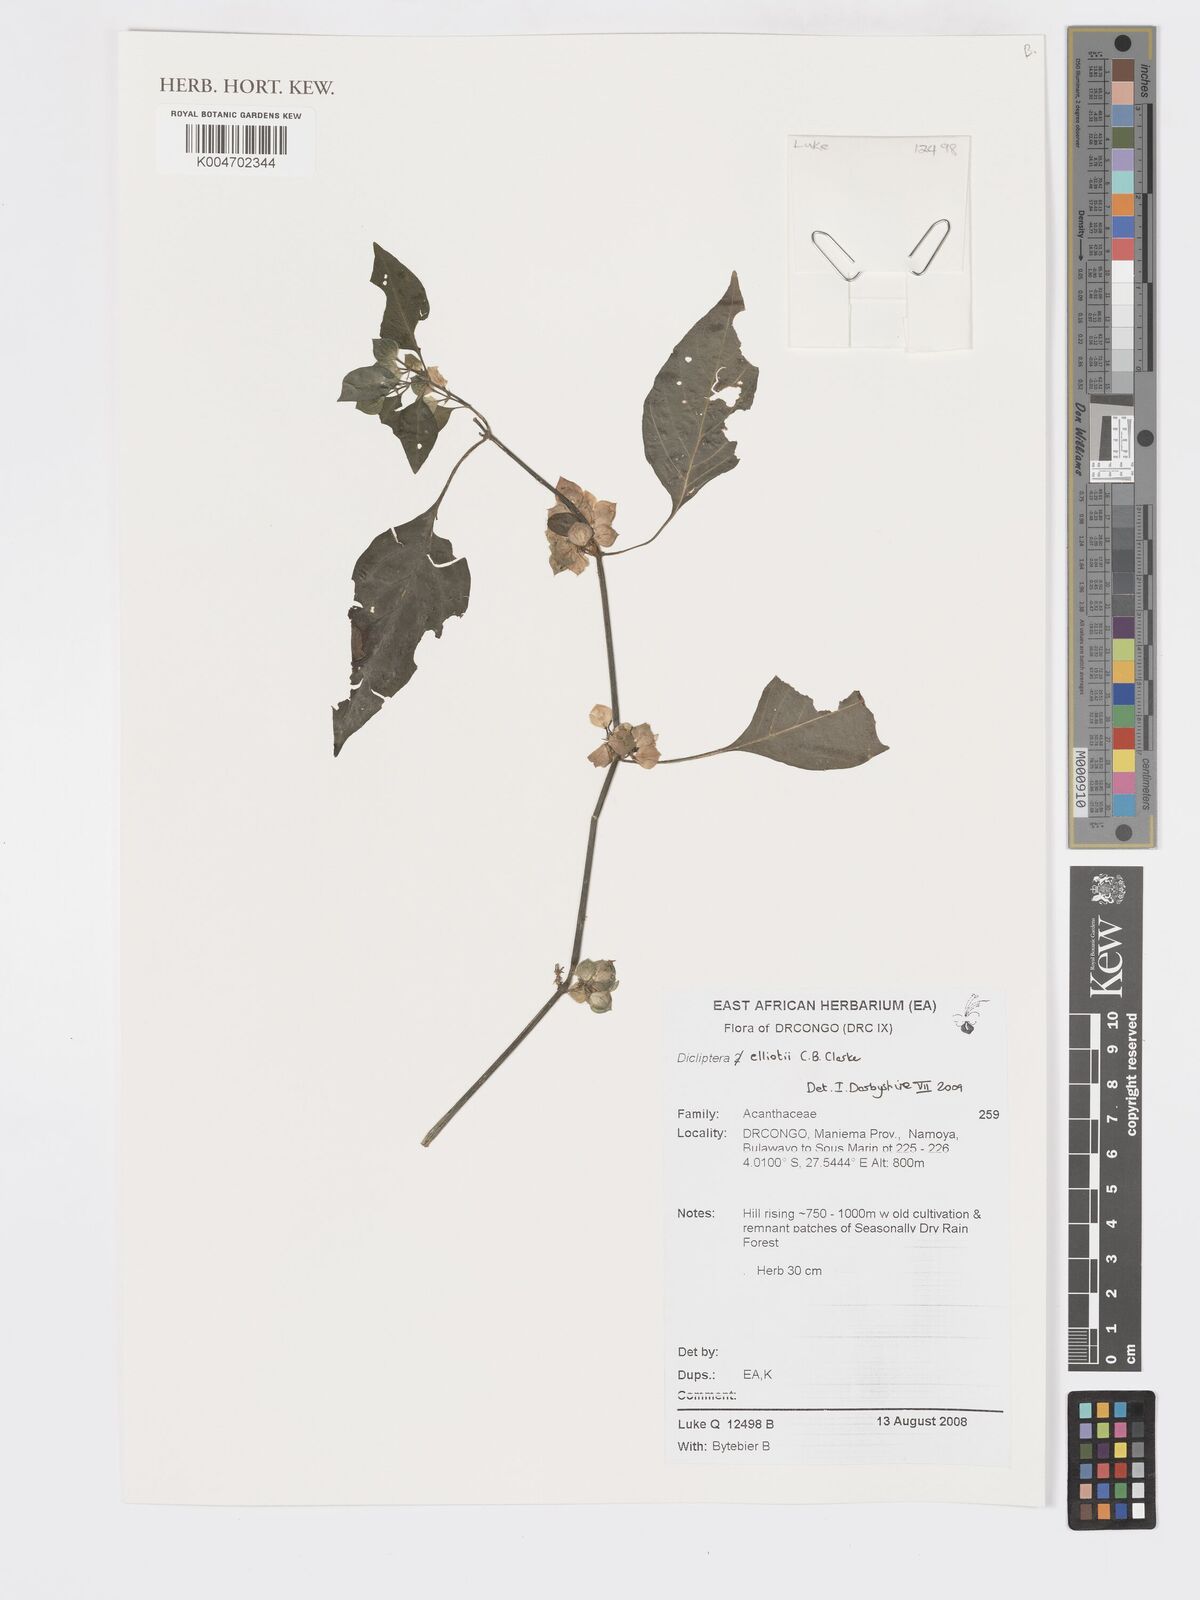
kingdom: Plantae
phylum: Tracheophyta
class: Magnoliopsida
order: Lamiales
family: Acanthaceae
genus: Dicliptera
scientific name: Dicliptera elliotii
